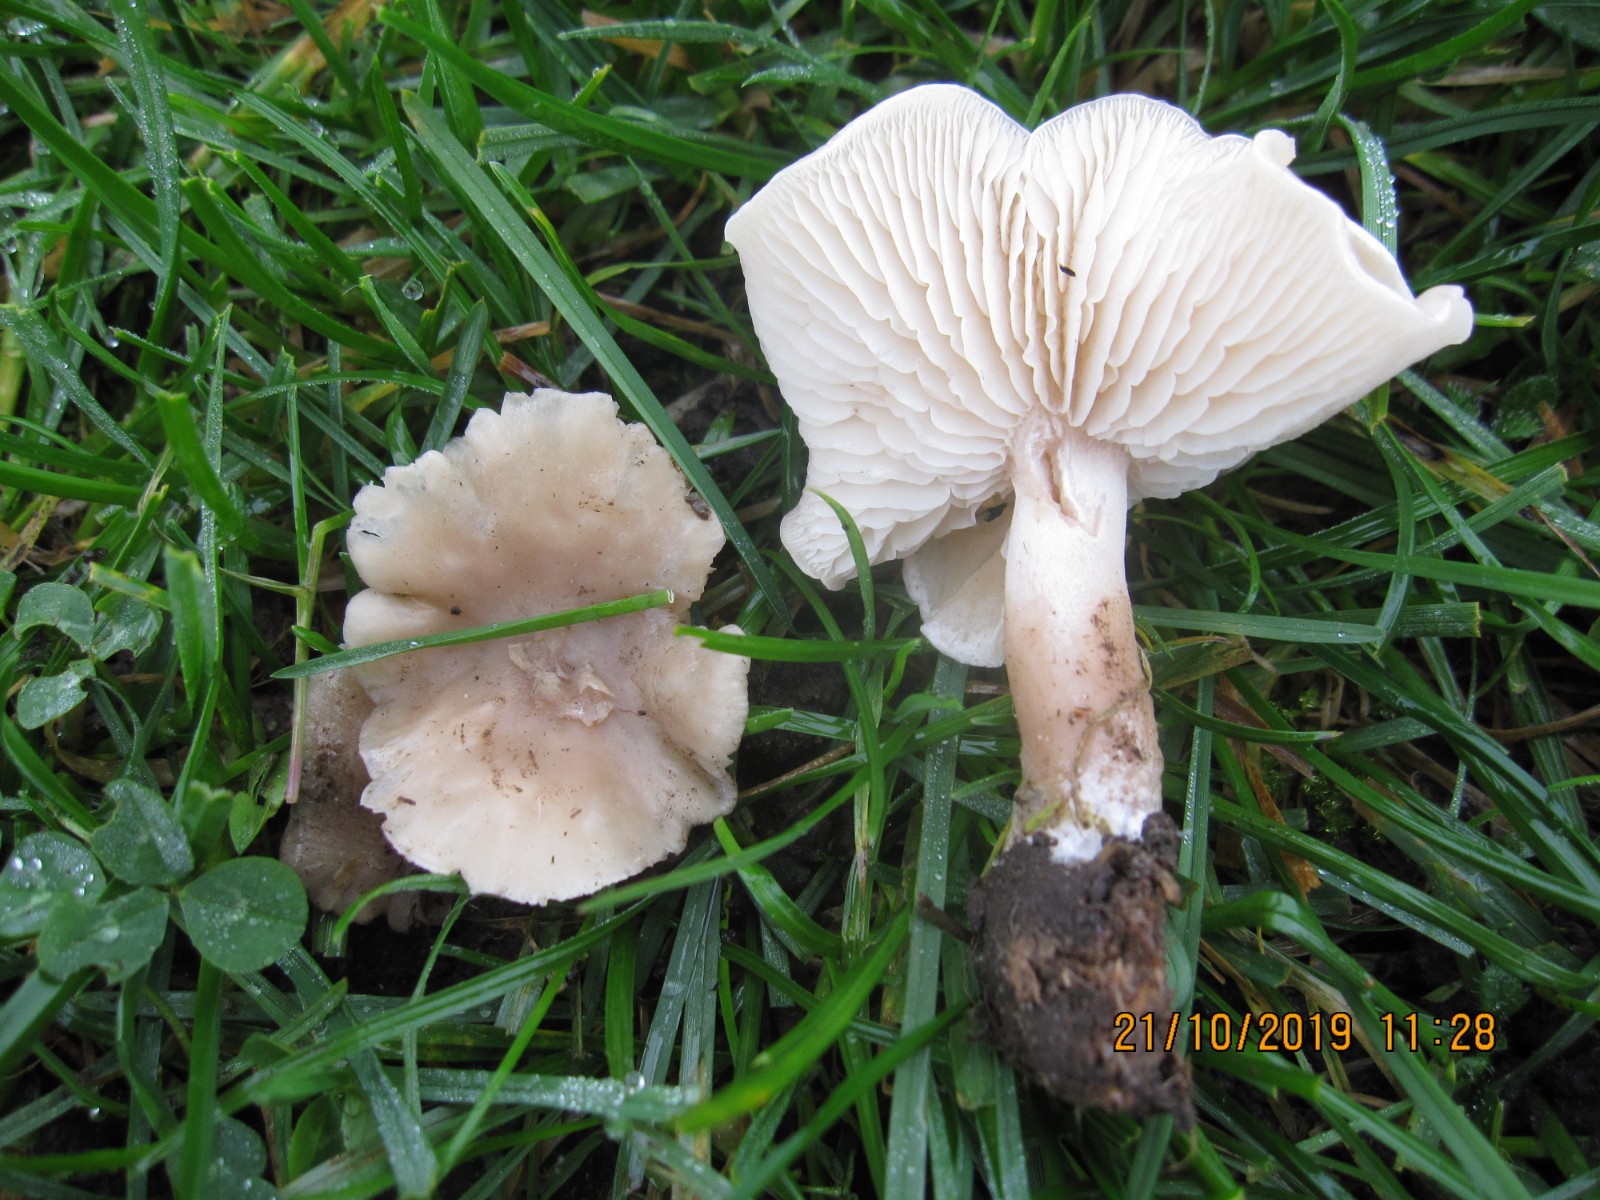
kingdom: Fungi
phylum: Basidiomycota
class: Agaricomycetes
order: Agaricales
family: Tricholomataceae
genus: Clitocybe
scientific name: Clitocybe agrestis
